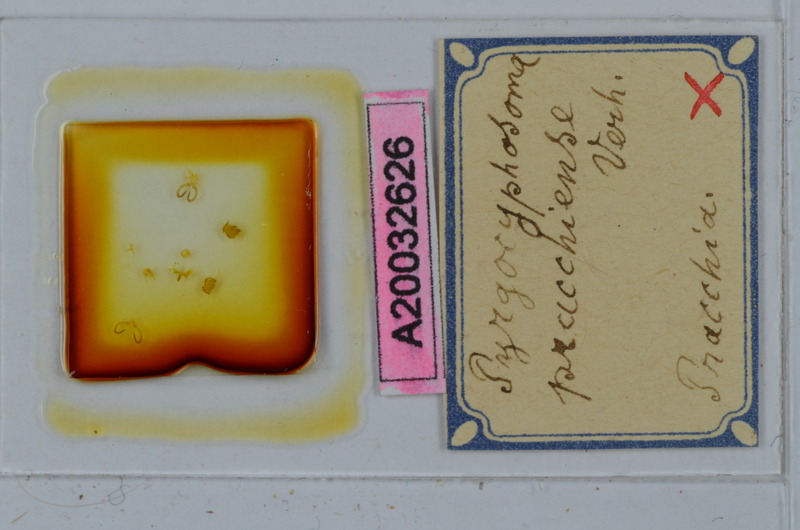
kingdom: Animalia
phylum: Arthropoda
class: Diplopoda
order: Chordeumatida
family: Craspedosomatidae
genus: Pyrgocyphosoma
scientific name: Pyrgocyphosoma pracchiense
